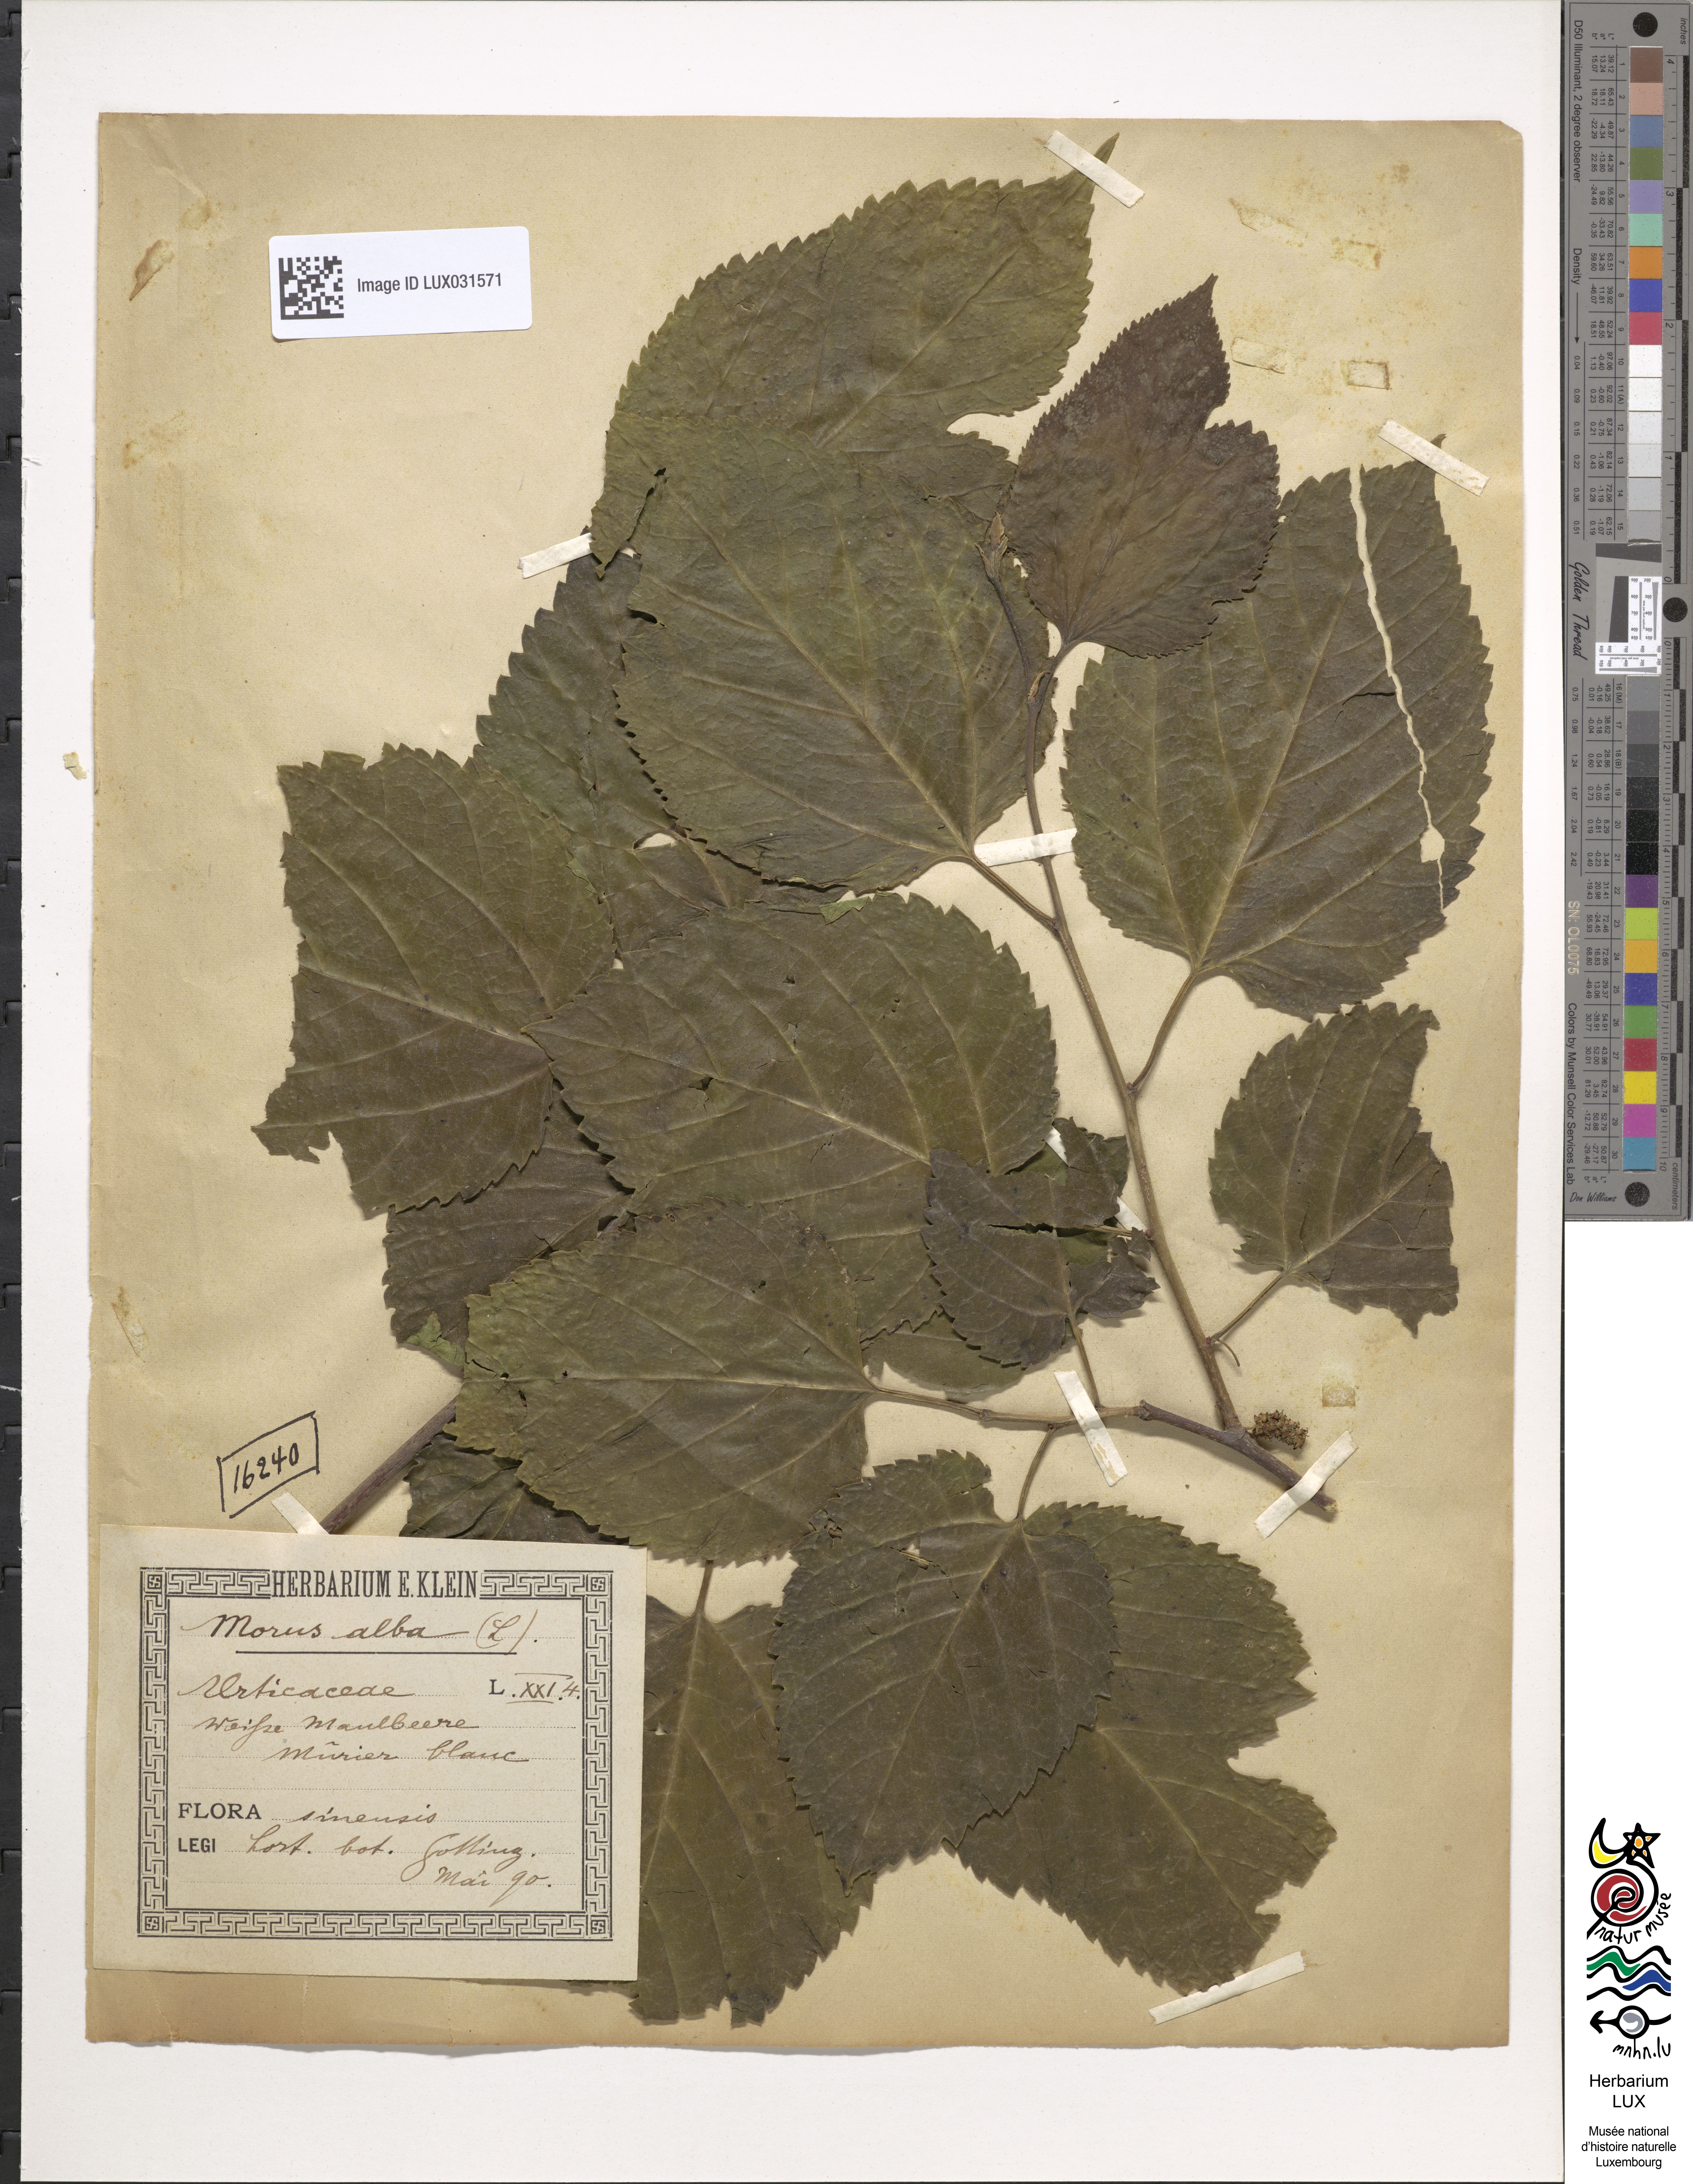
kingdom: Plantae
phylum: Tracheophyta
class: Magnoliopsida
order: Rosales
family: Moraceae
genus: Morus
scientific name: Morus alba
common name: White mulberry
